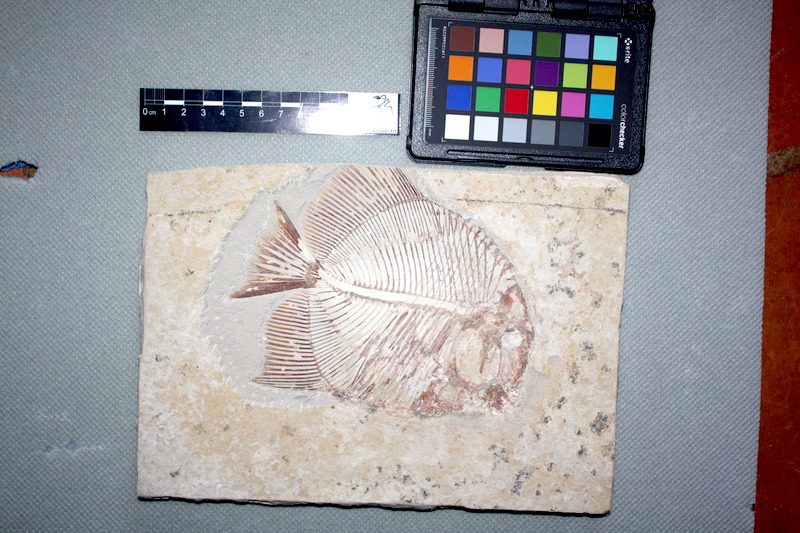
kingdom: Animalia
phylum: Chordata
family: Pycnodontidae
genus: Turbomesodon
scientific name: Turbomesodon relegans
